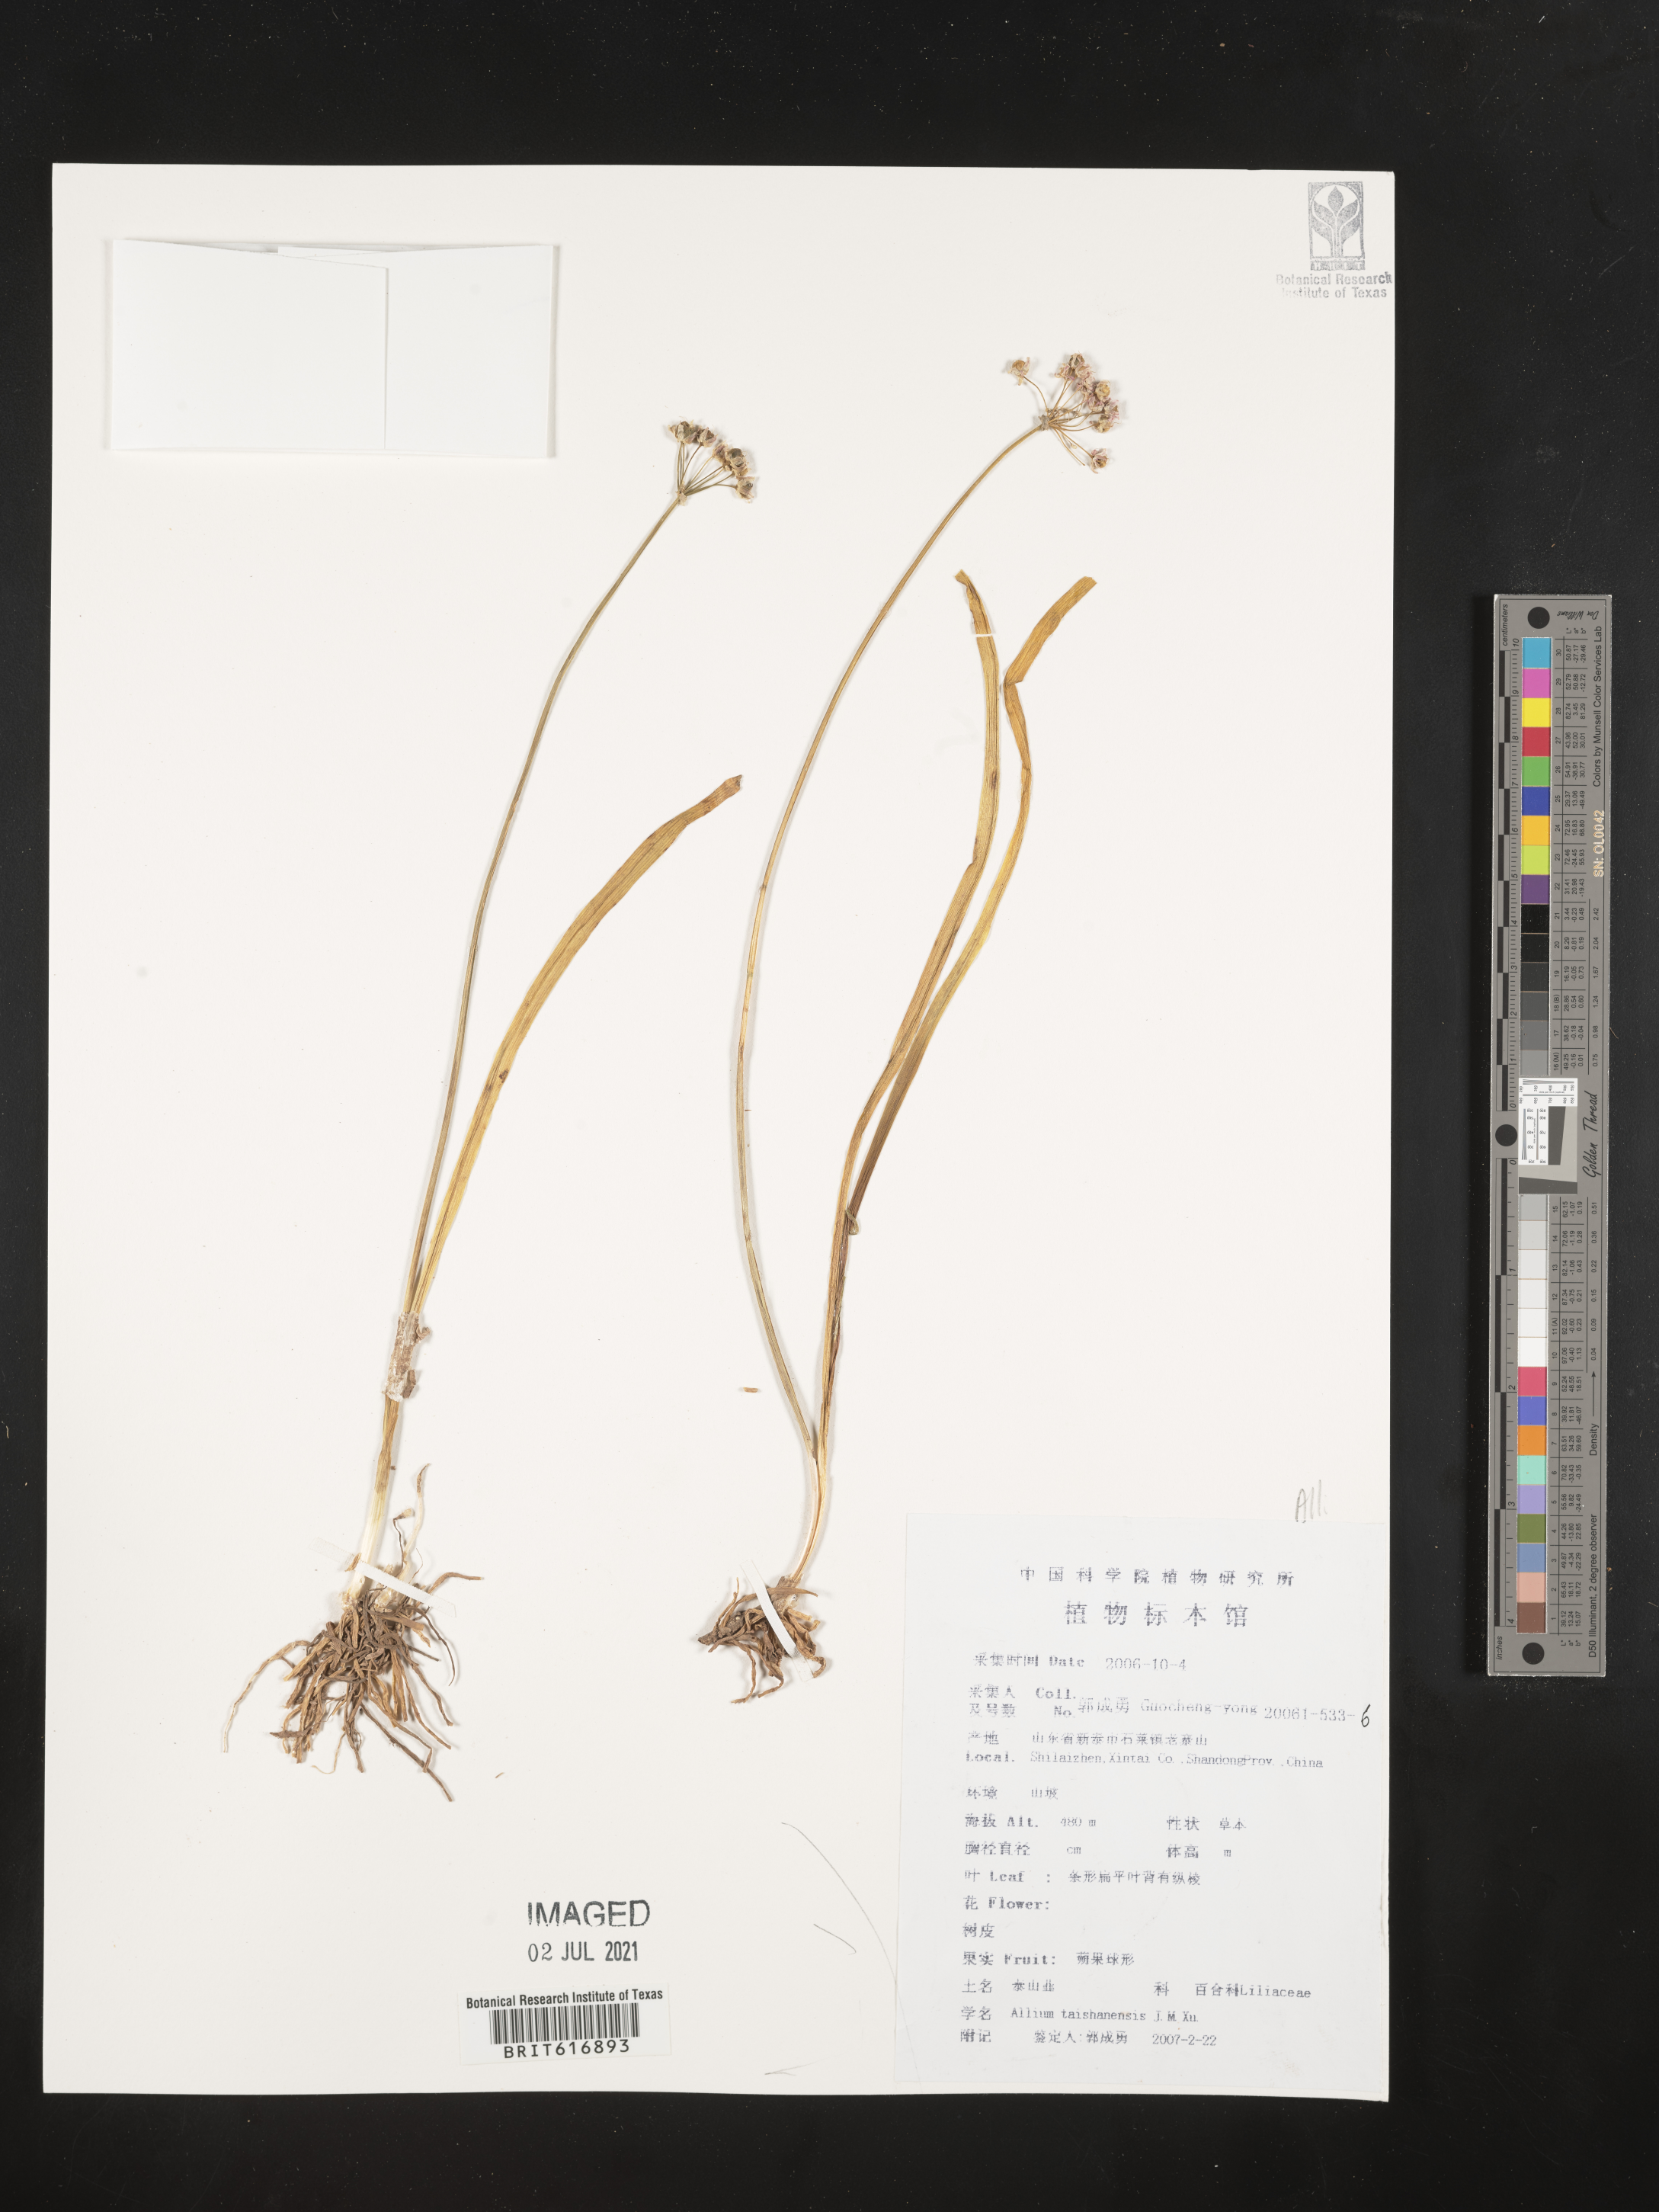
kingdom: Plantae
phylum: Tracheophyta
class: Liliopsida
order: Asparagales
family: Amaryllidaceae
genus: Allium
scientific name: Allium taishanense
